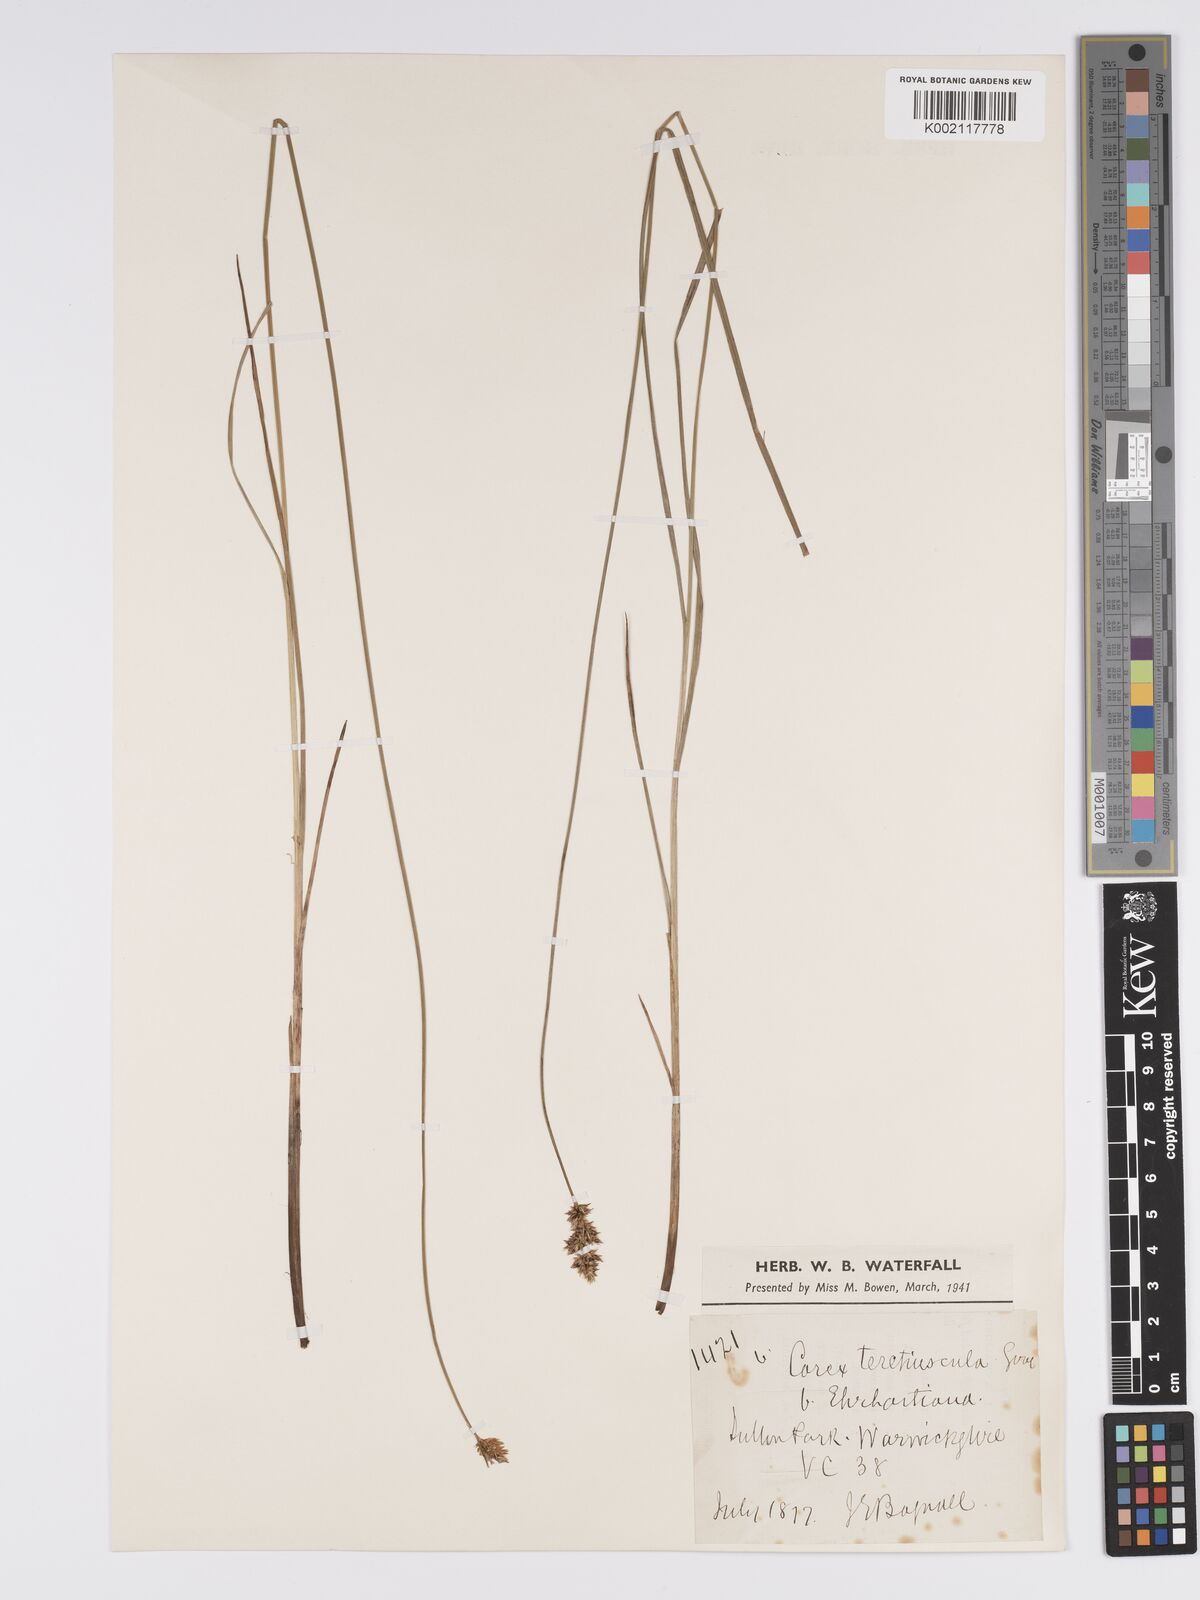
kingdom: Plantae
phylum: Tracheophyta
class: Liliopsida
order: Poales
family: Cyperaceae
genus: Carex
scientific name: Carex diandra
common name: Lesser tussock-sedge
